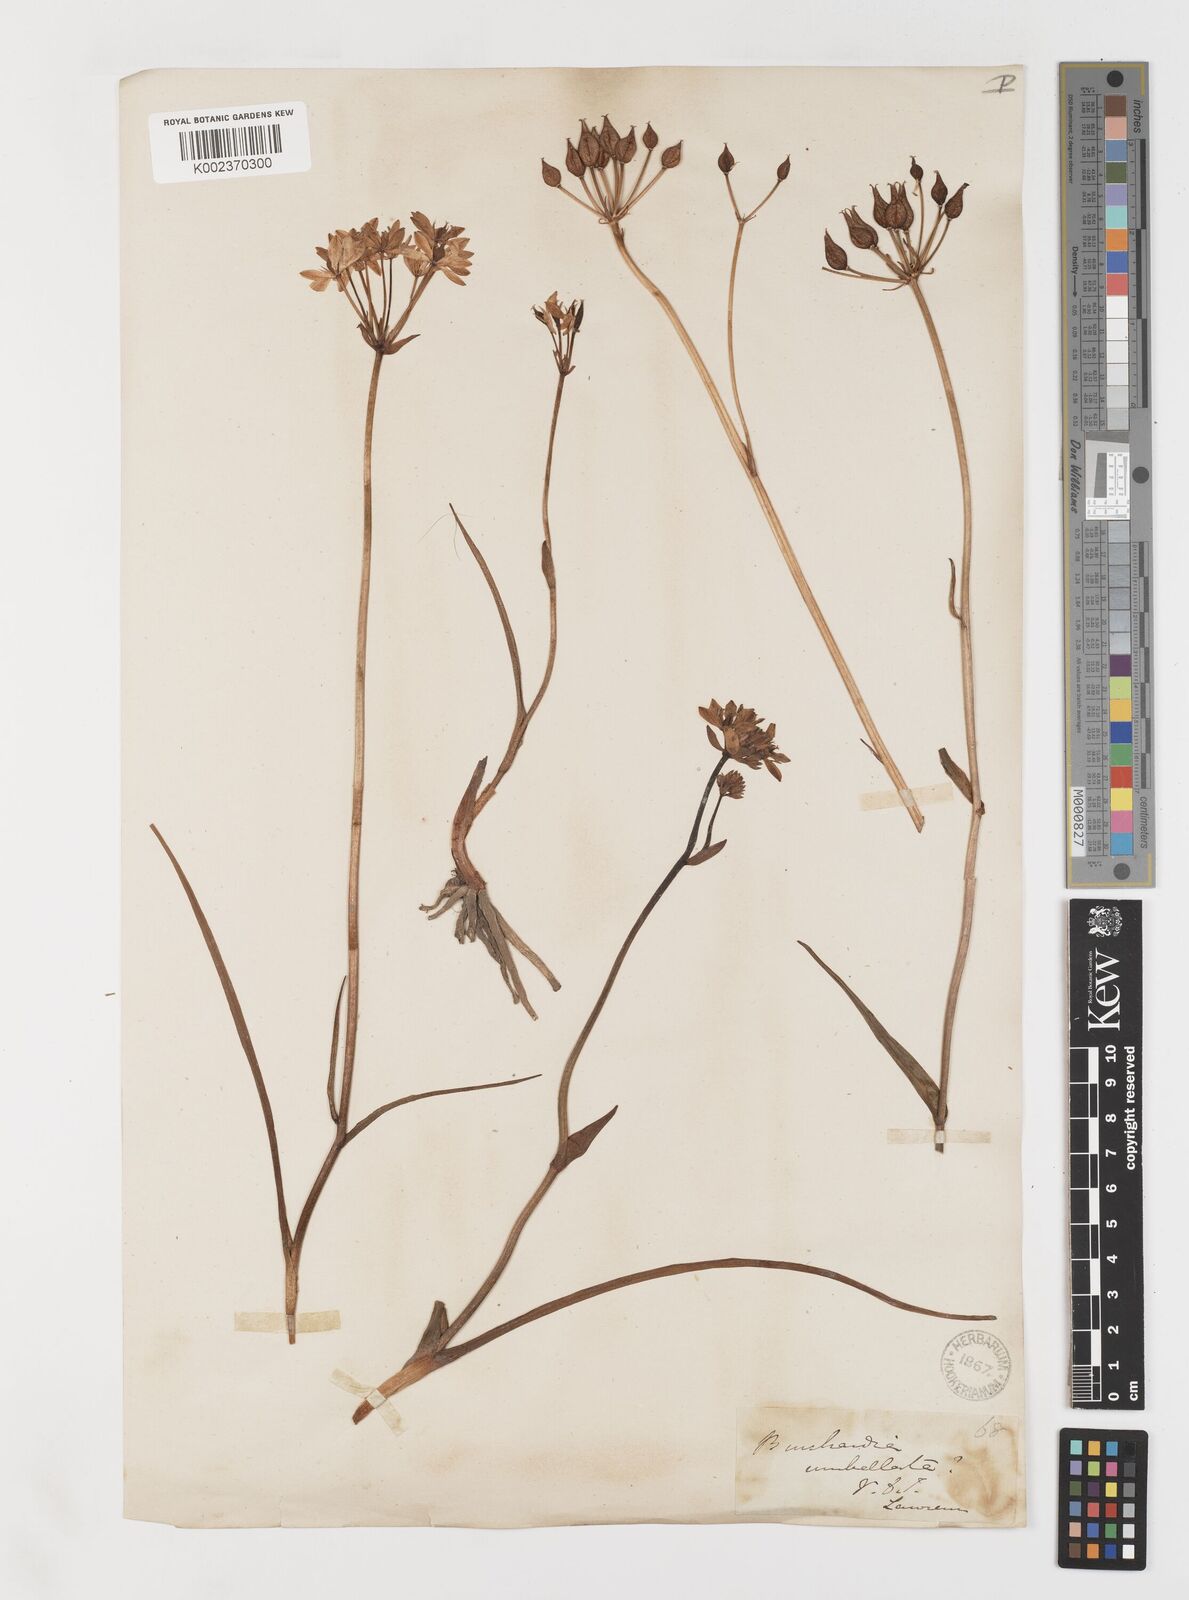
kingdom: Plantae
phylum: Tracheophyta
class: Liliopsida
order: Liliales
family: Colchicaceae
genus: Burchardia
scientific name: Burchardia umbellata
